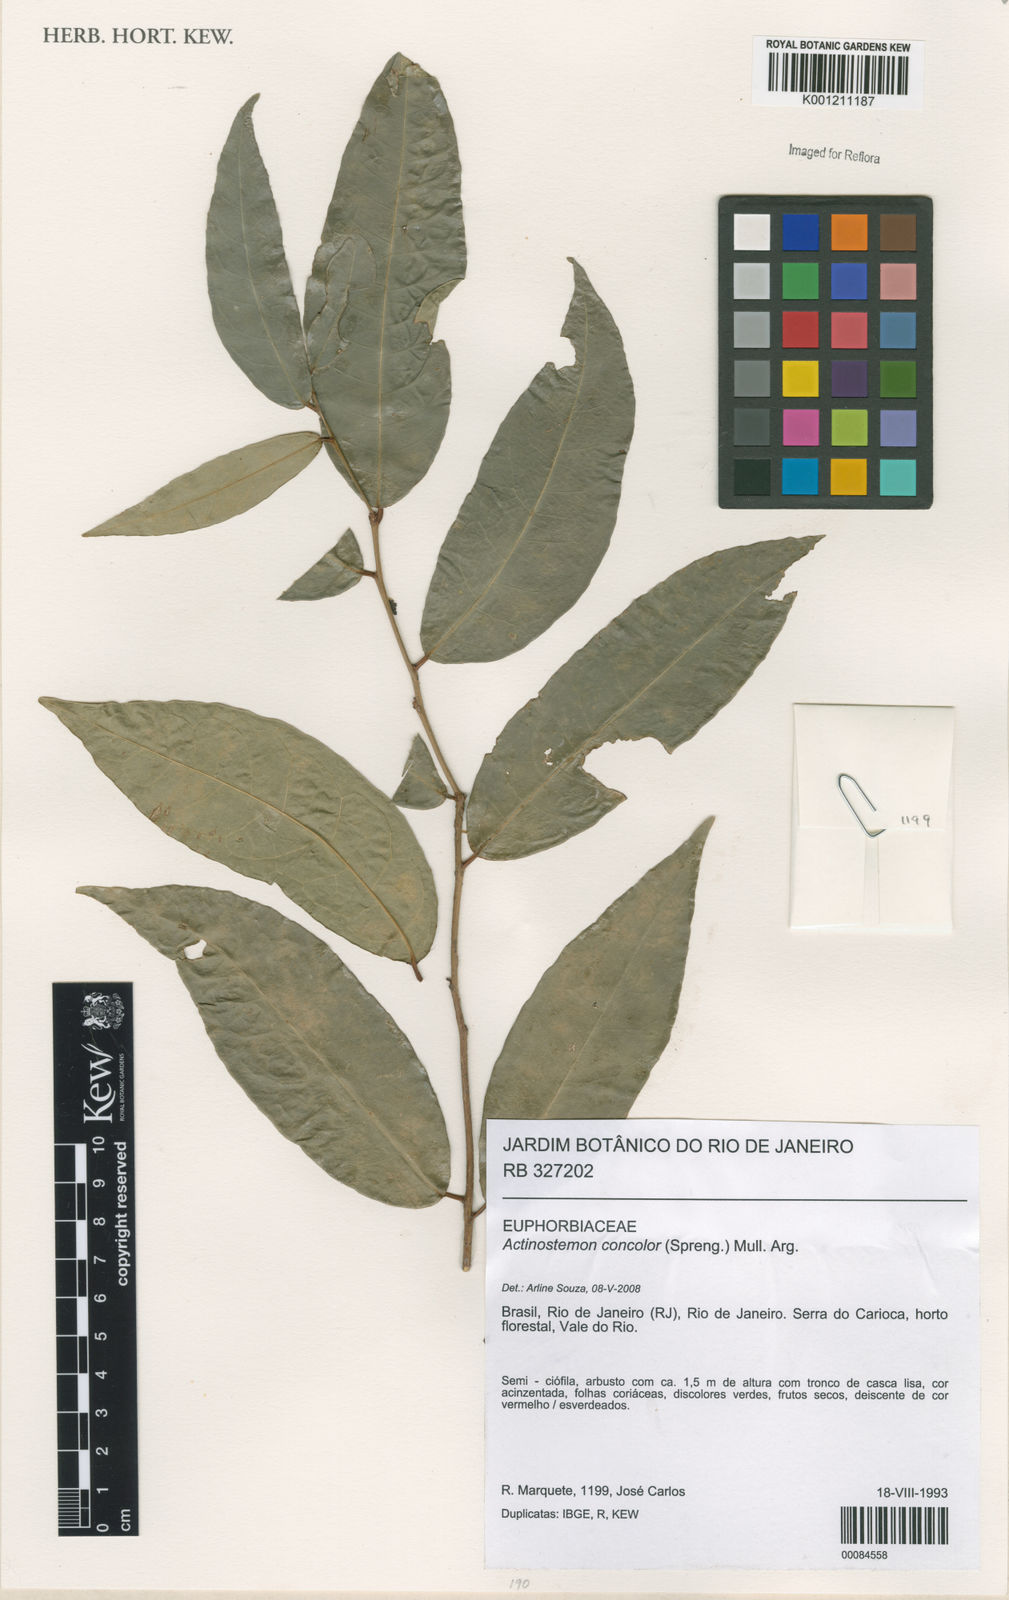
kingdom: Plantae
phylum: Tracheophyta
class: Magnoliopsida
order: Malpighiales
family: Euphorbiaceae
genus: Actinostemon
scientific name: Actinostemon
